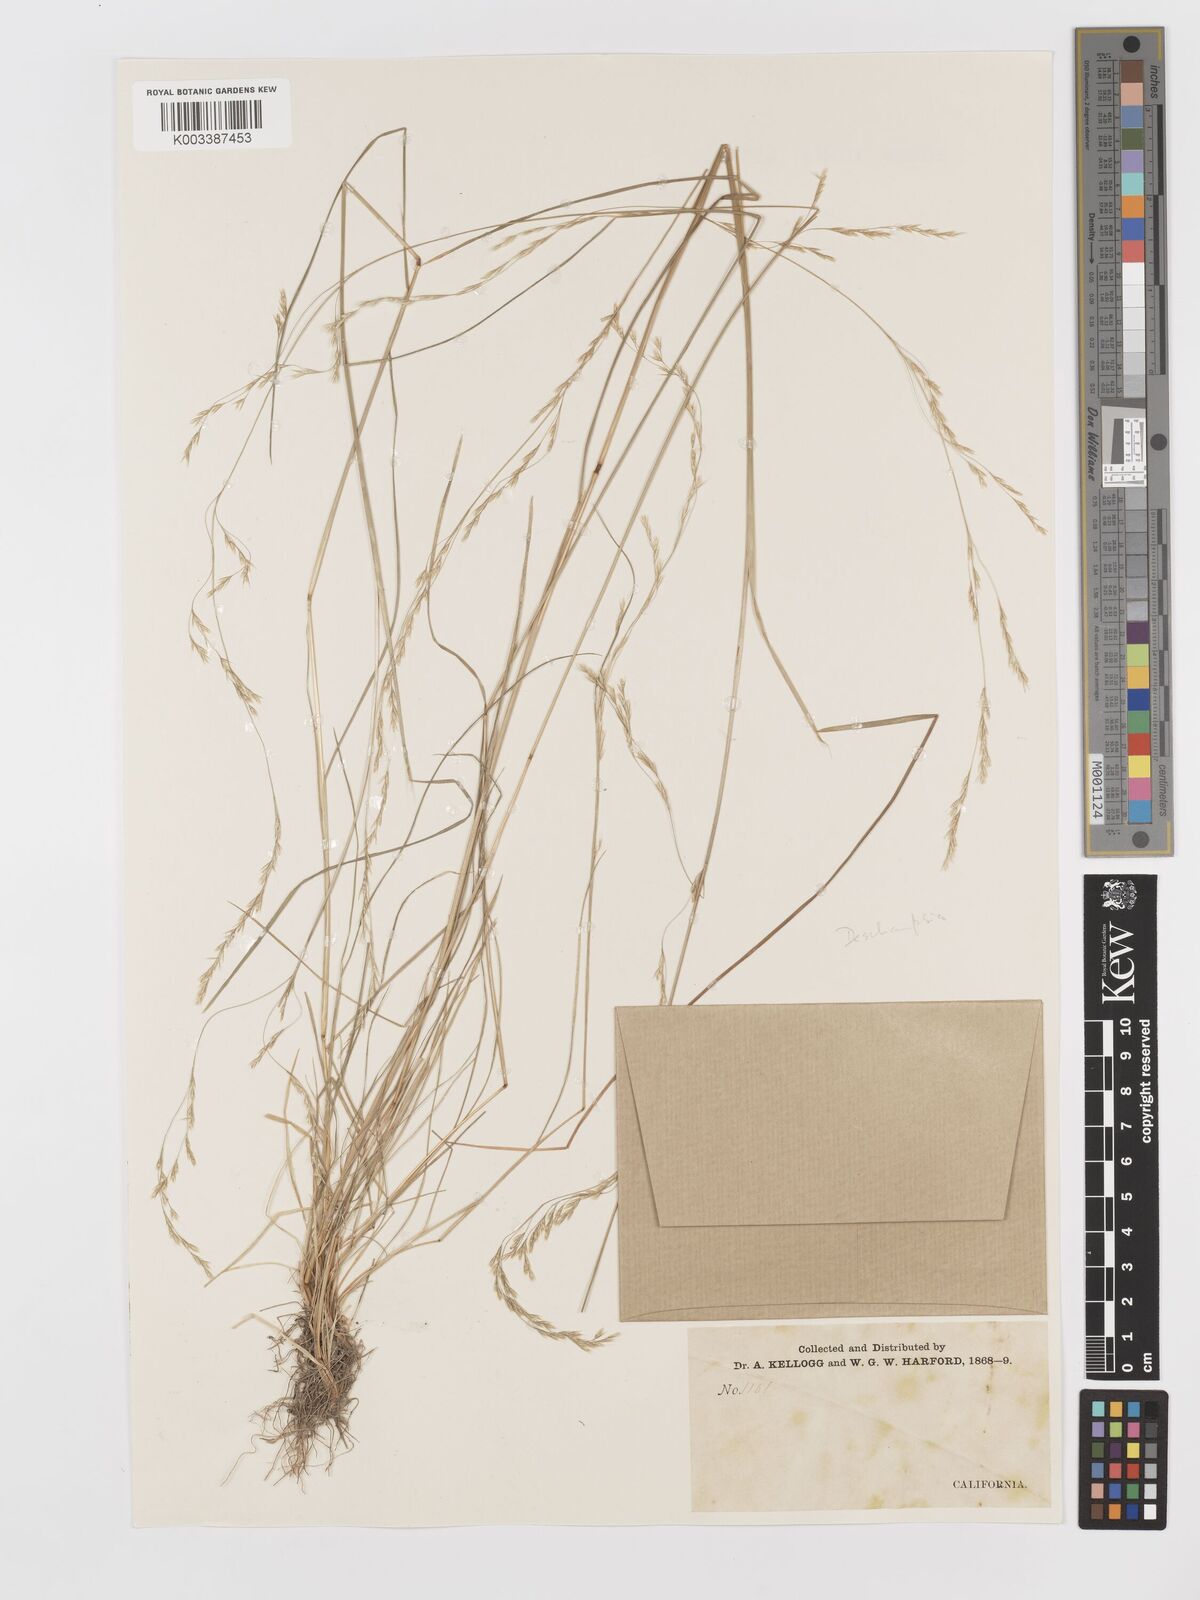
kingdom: Plantae
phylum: Tracheophyta
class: Liliopsida
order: Poales
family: Poaceae
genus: Deschampsia
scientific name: Deschampsia
